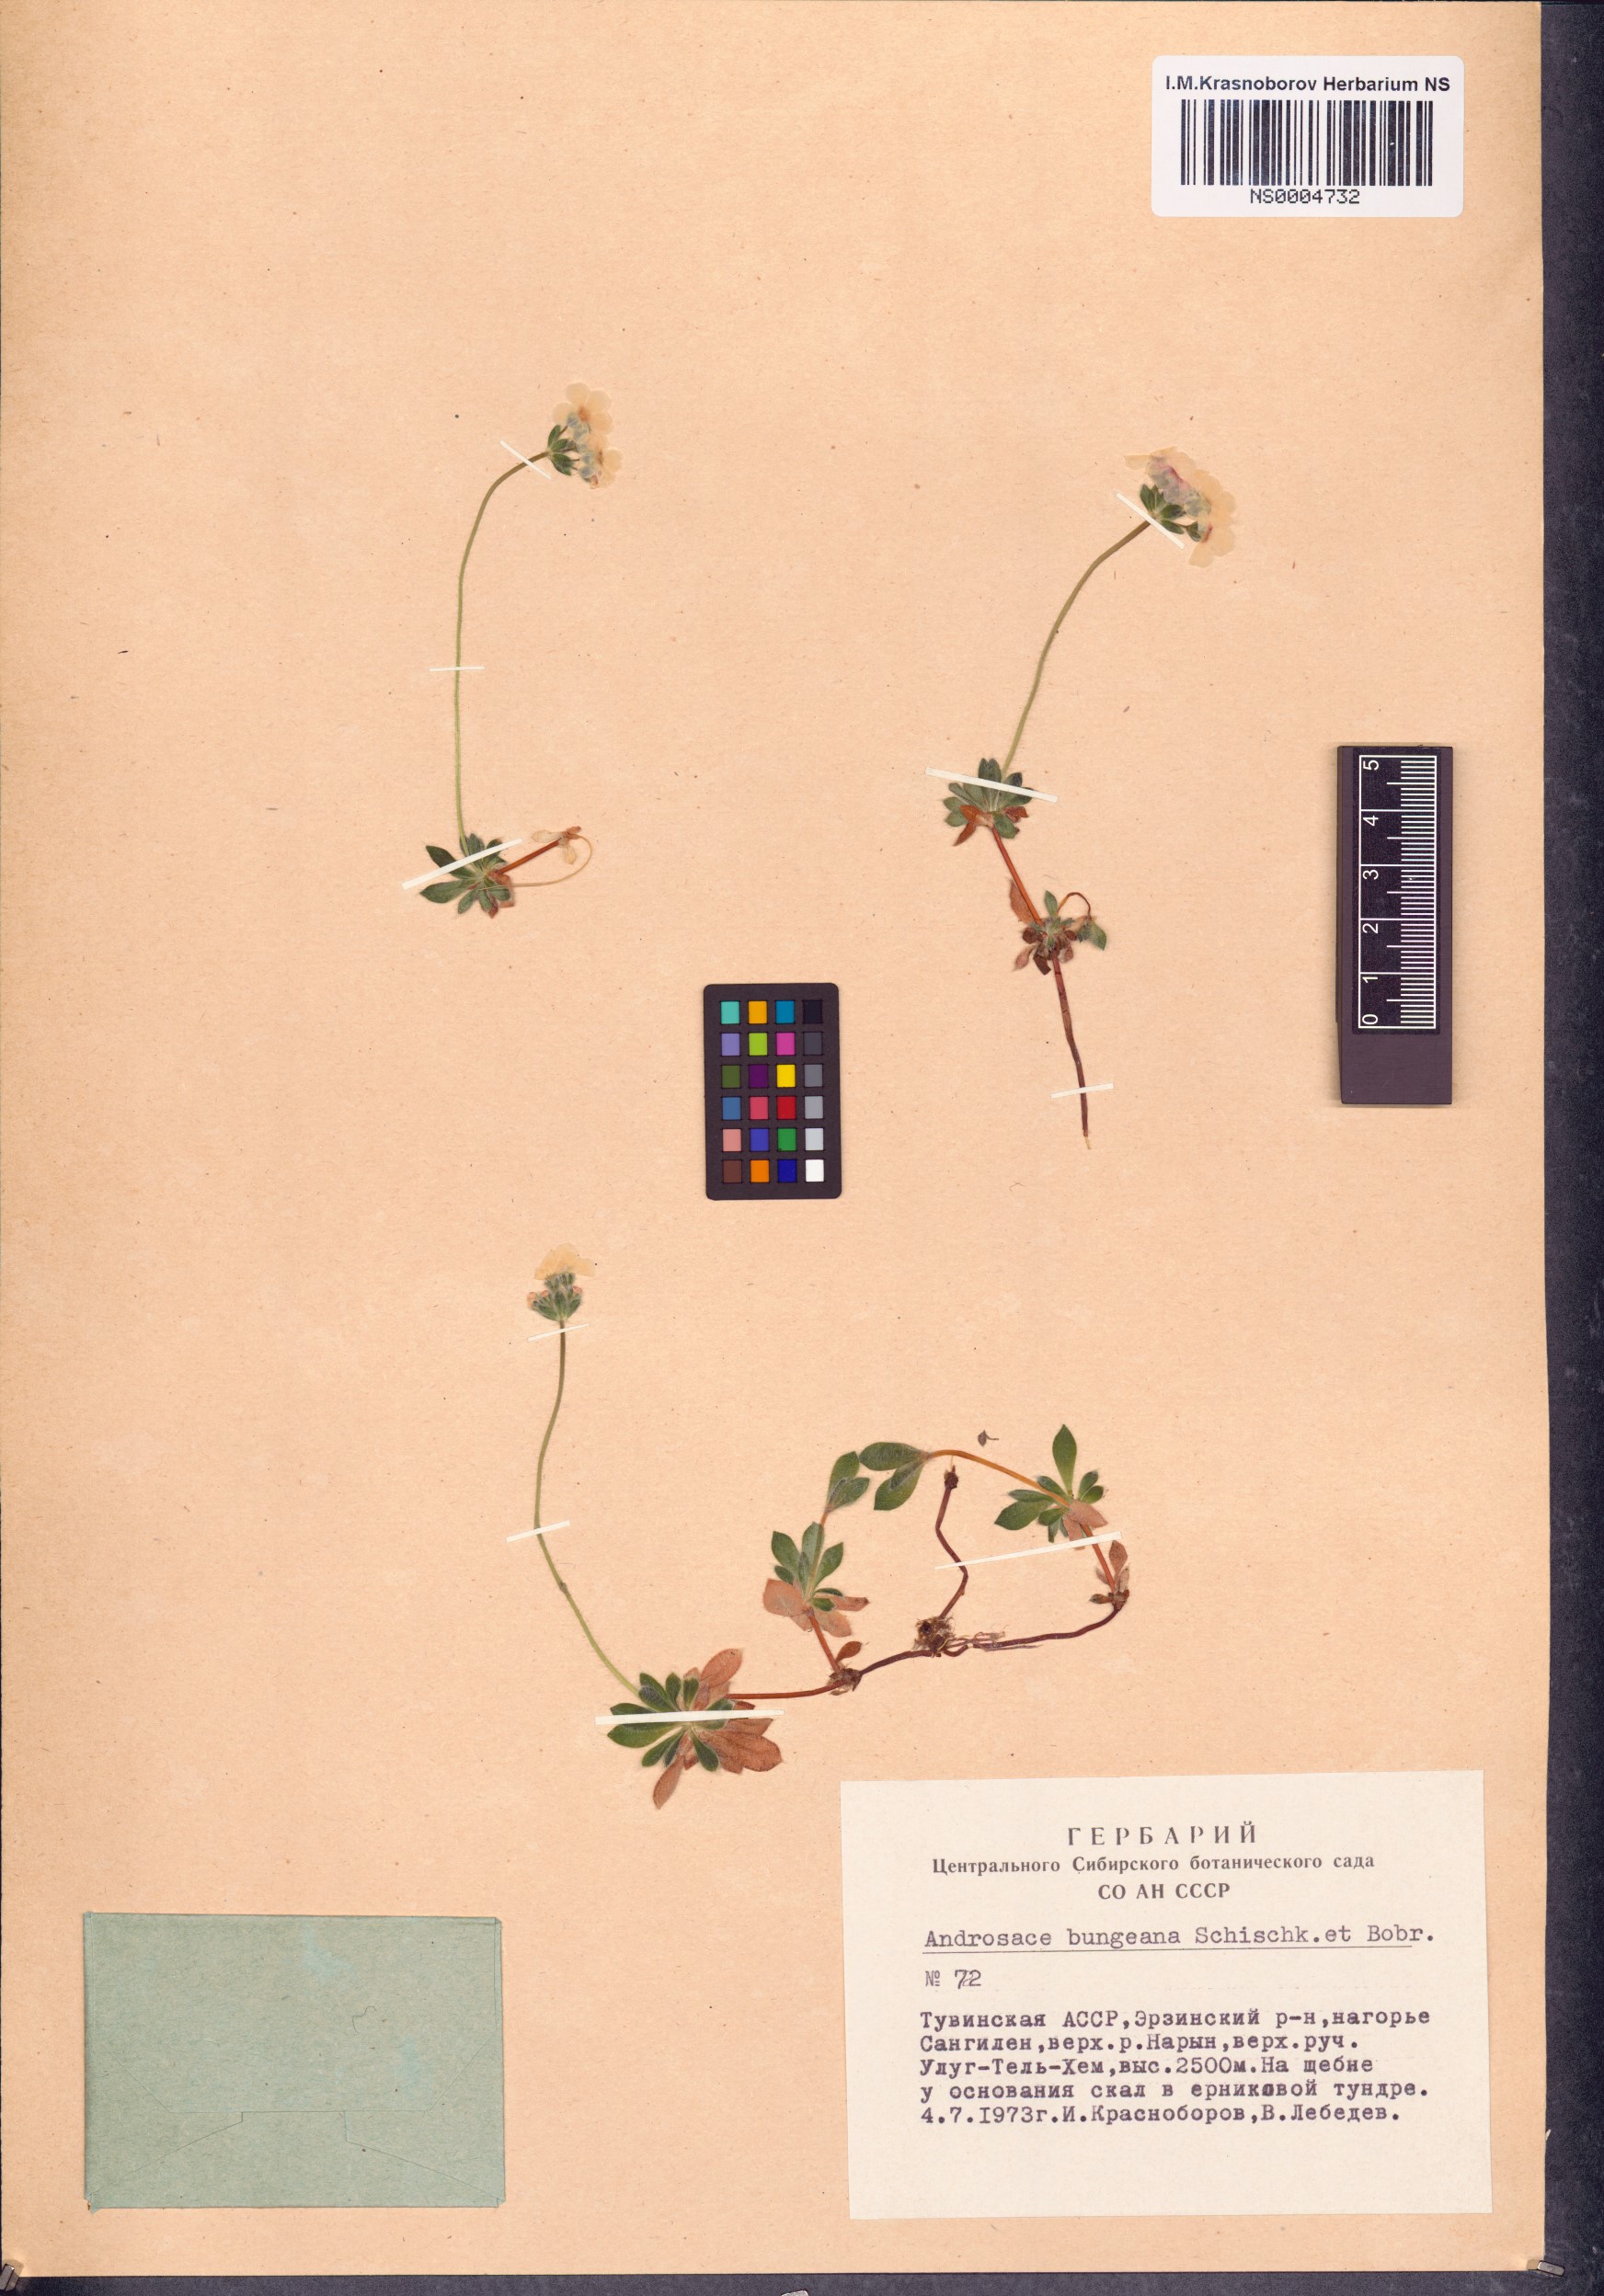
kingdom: Plantae
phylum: Tracheophyta
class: Magnoliopsida
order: Ericales
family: Primulaceae
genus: Androsace
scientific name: Androsace bungeana
